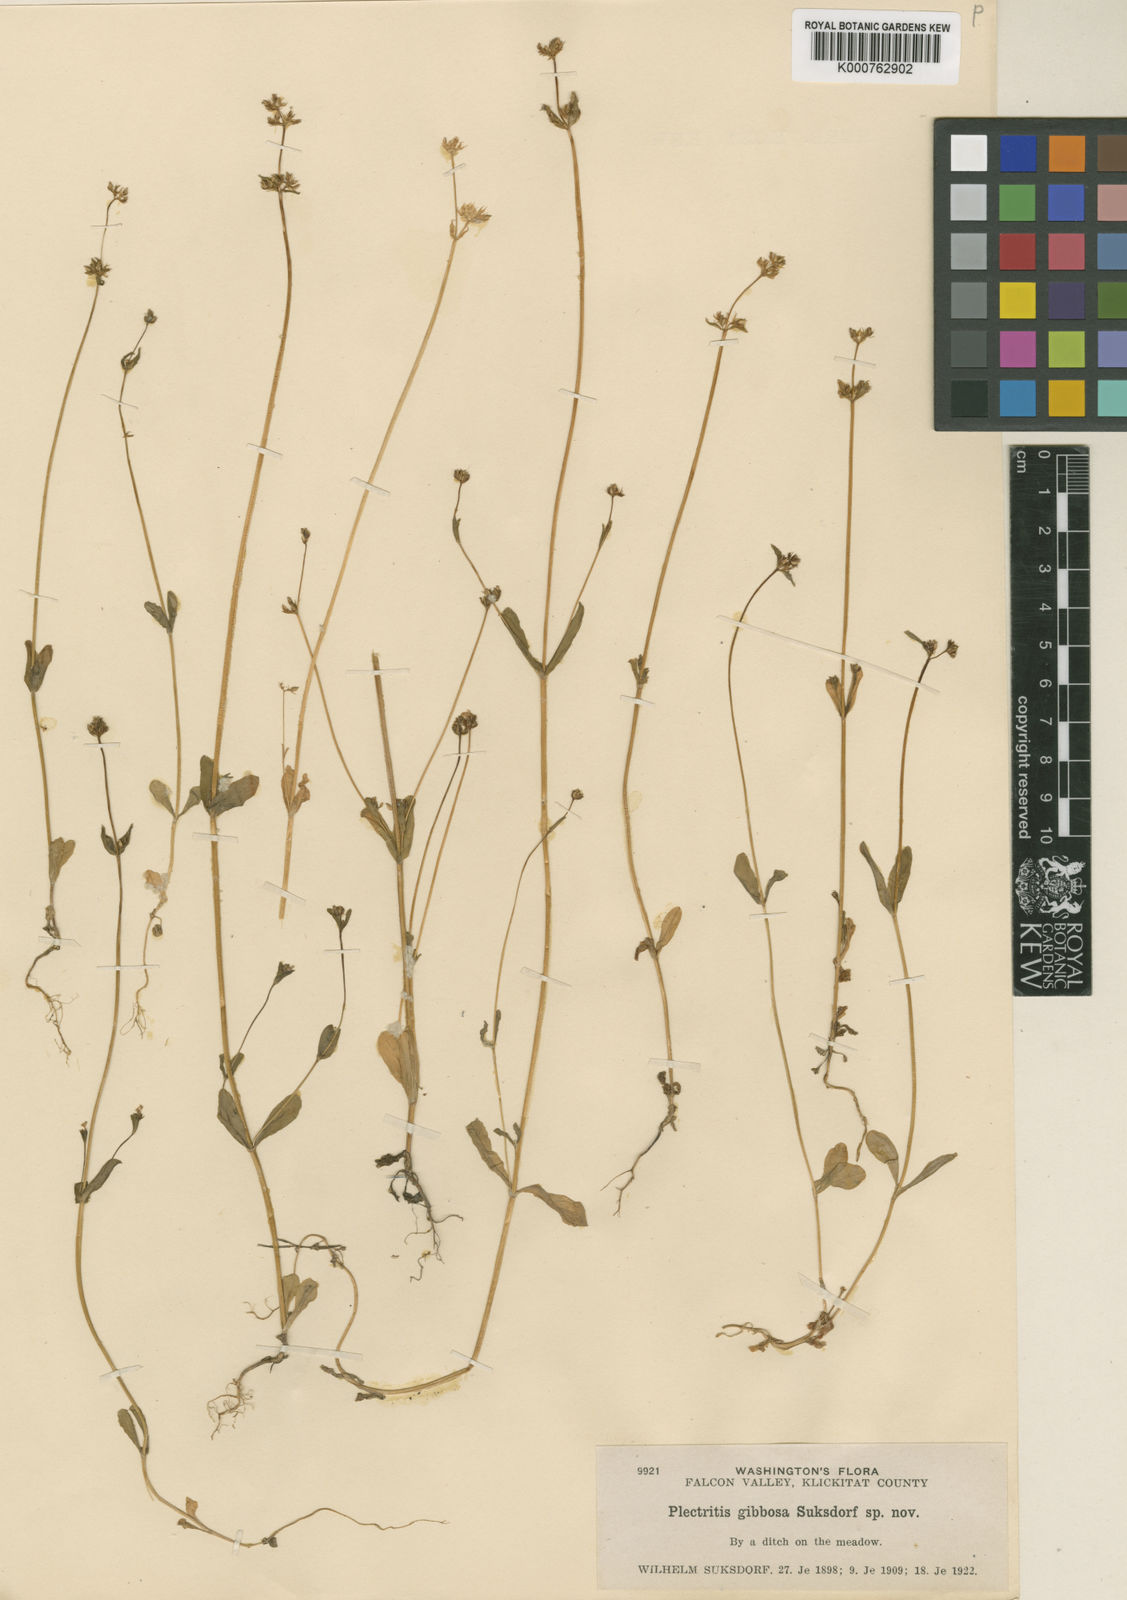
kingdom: Plantae
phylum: Tracheophyta
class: Magnoliopsida
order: Dipsacales
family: Caprifoliaceae
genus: Plectritis
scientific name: Plectritis brachystemon
